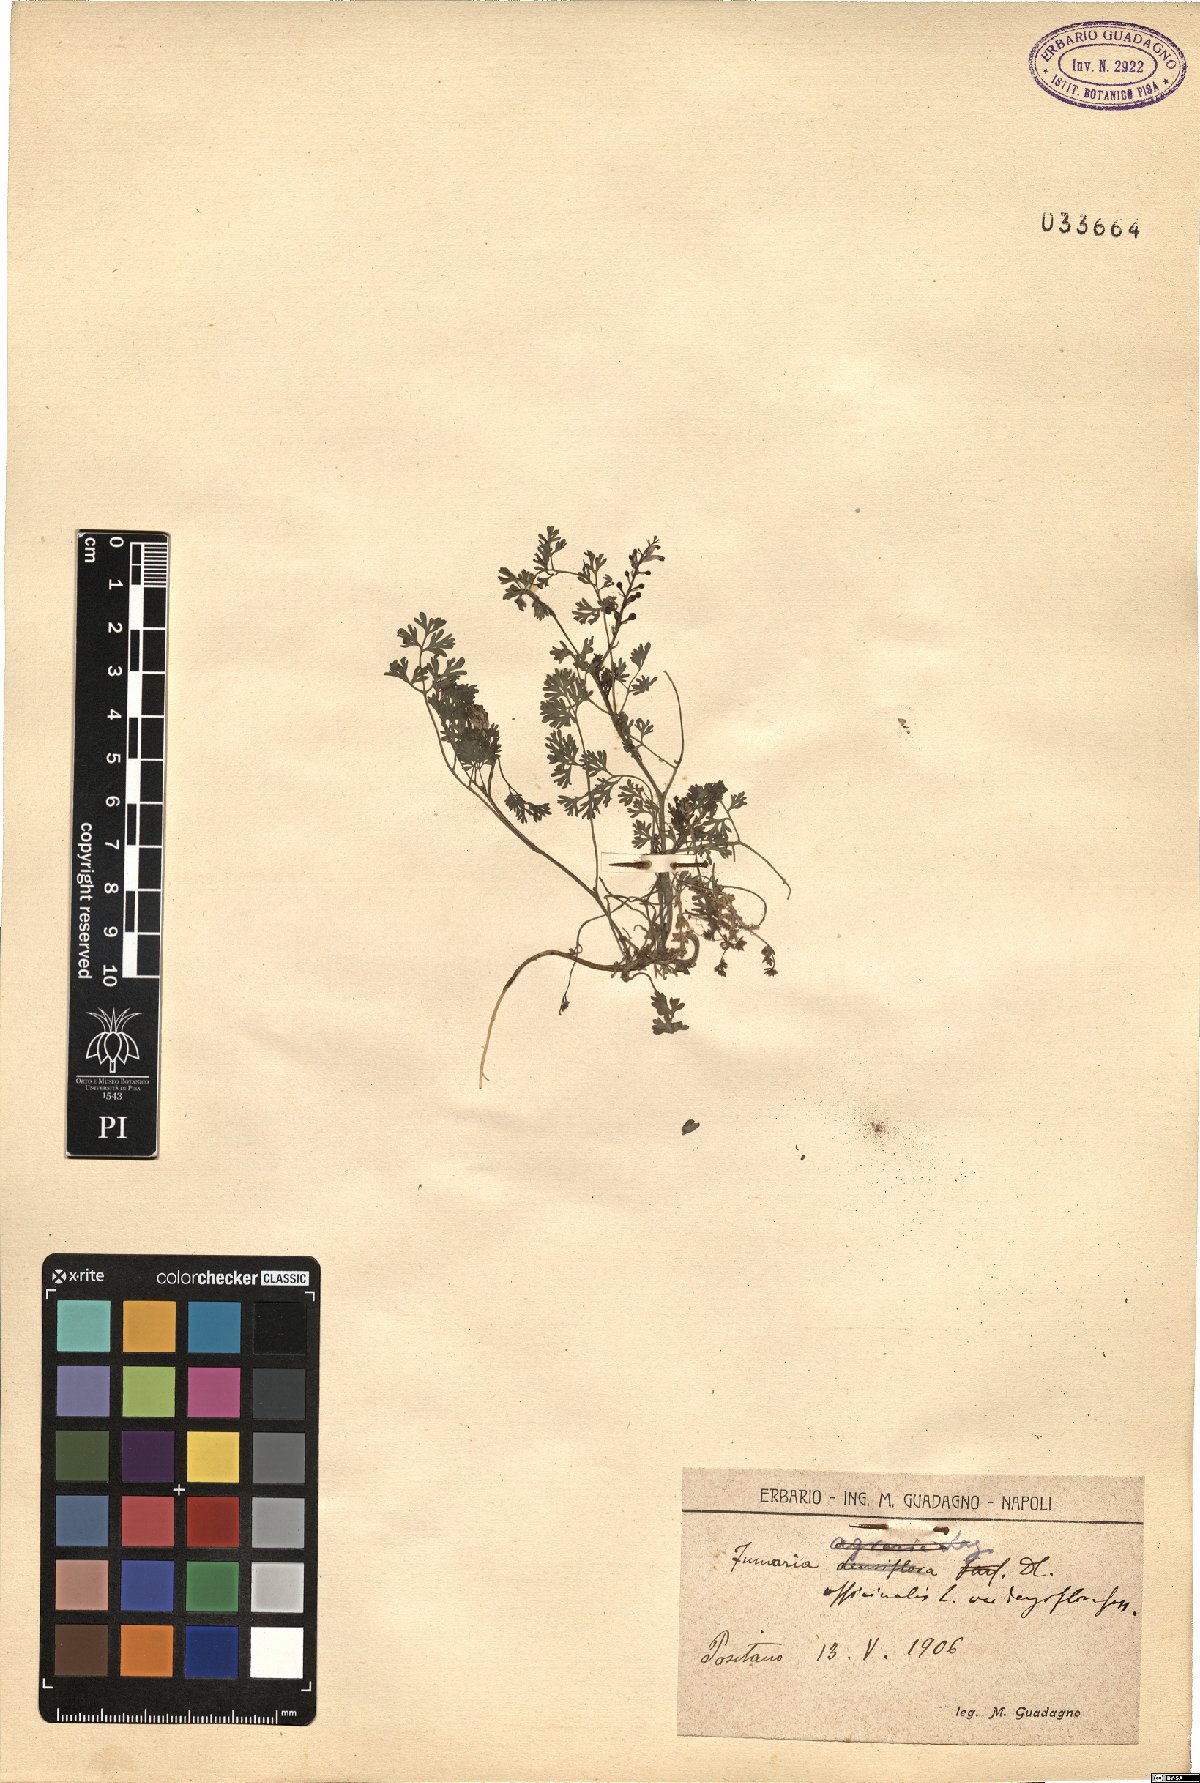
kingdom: Plantae
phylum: Tracheophyta
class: Magnoliopsida
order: Ranunculales
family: Papaveraceae
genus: Fumaria
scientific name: Fumaria densiflora
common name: Dense-flowered fumitory
